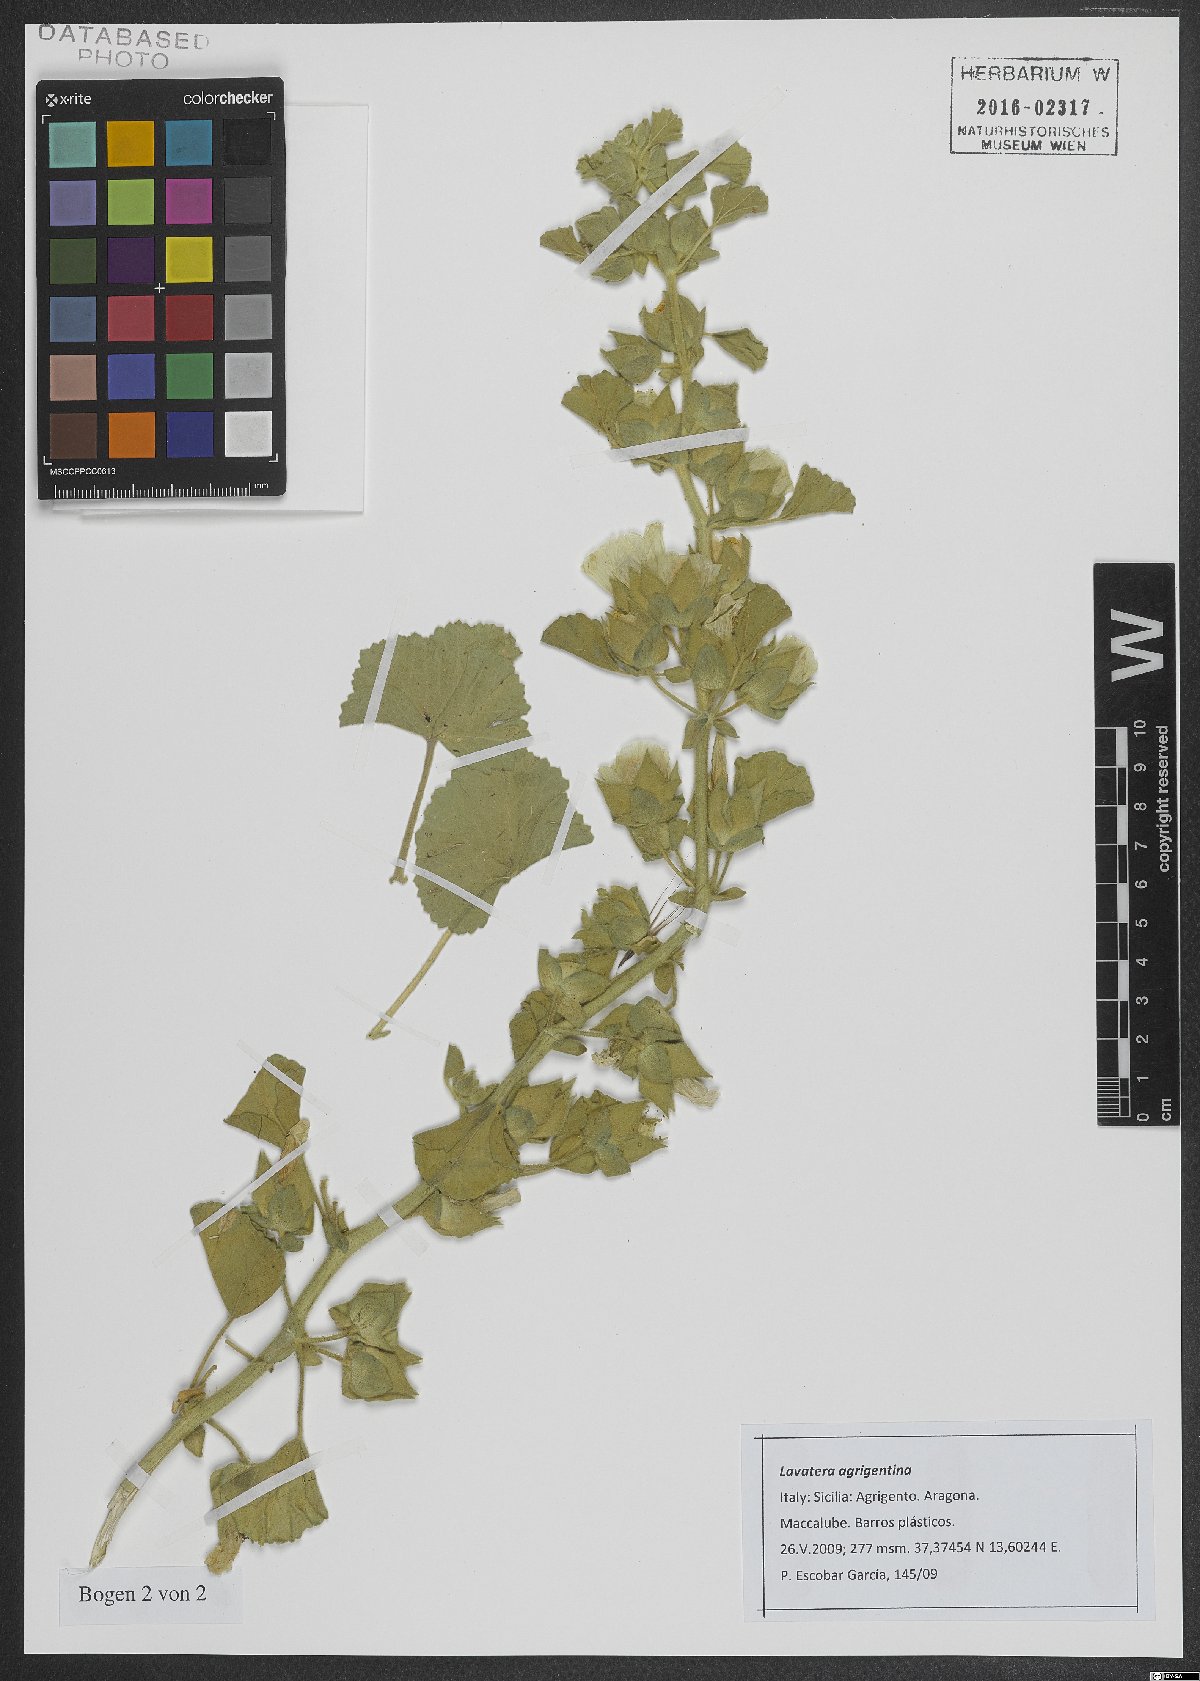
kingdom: Plantae
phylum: Tracheophyta
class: Magnoliopsida
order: Malvales
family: Malvaceae
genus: Malva
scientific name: Malva agrigentina
